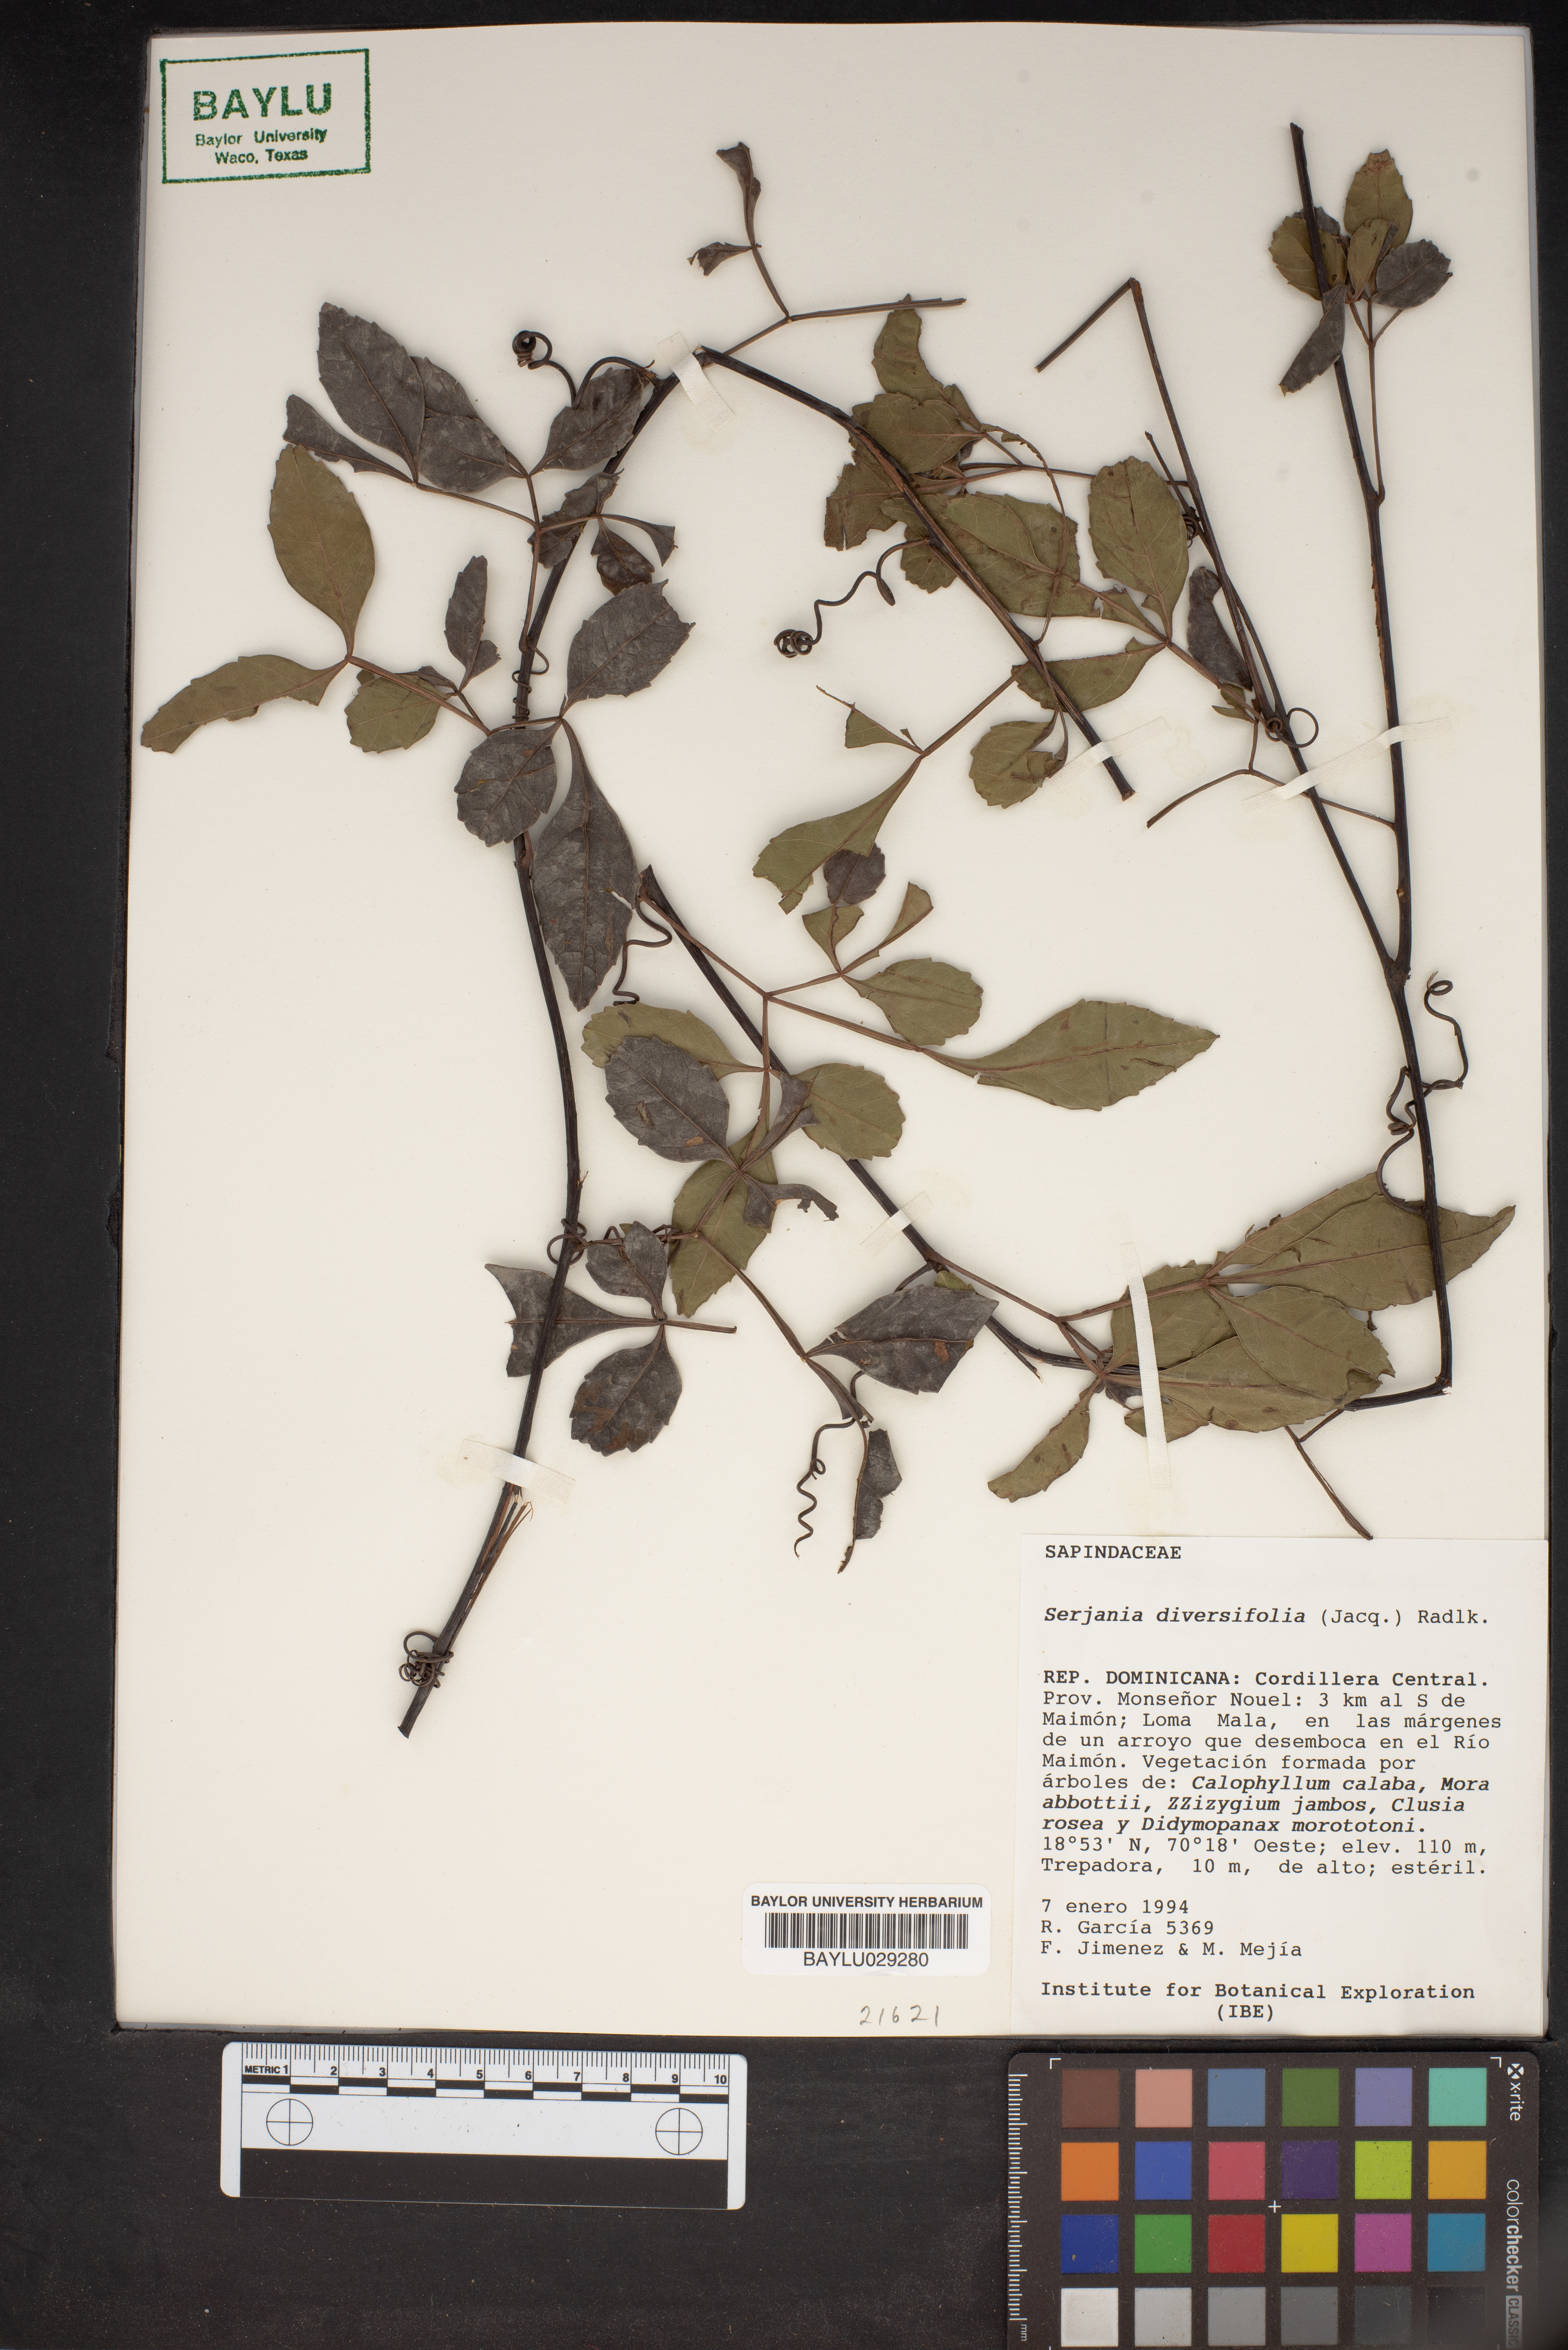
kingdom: Plantae
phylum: Tracheophyta
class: Magnoliopsida
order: Sapindales
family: Sapindaceae
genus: Serjania
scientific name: Serjania diversifolia
